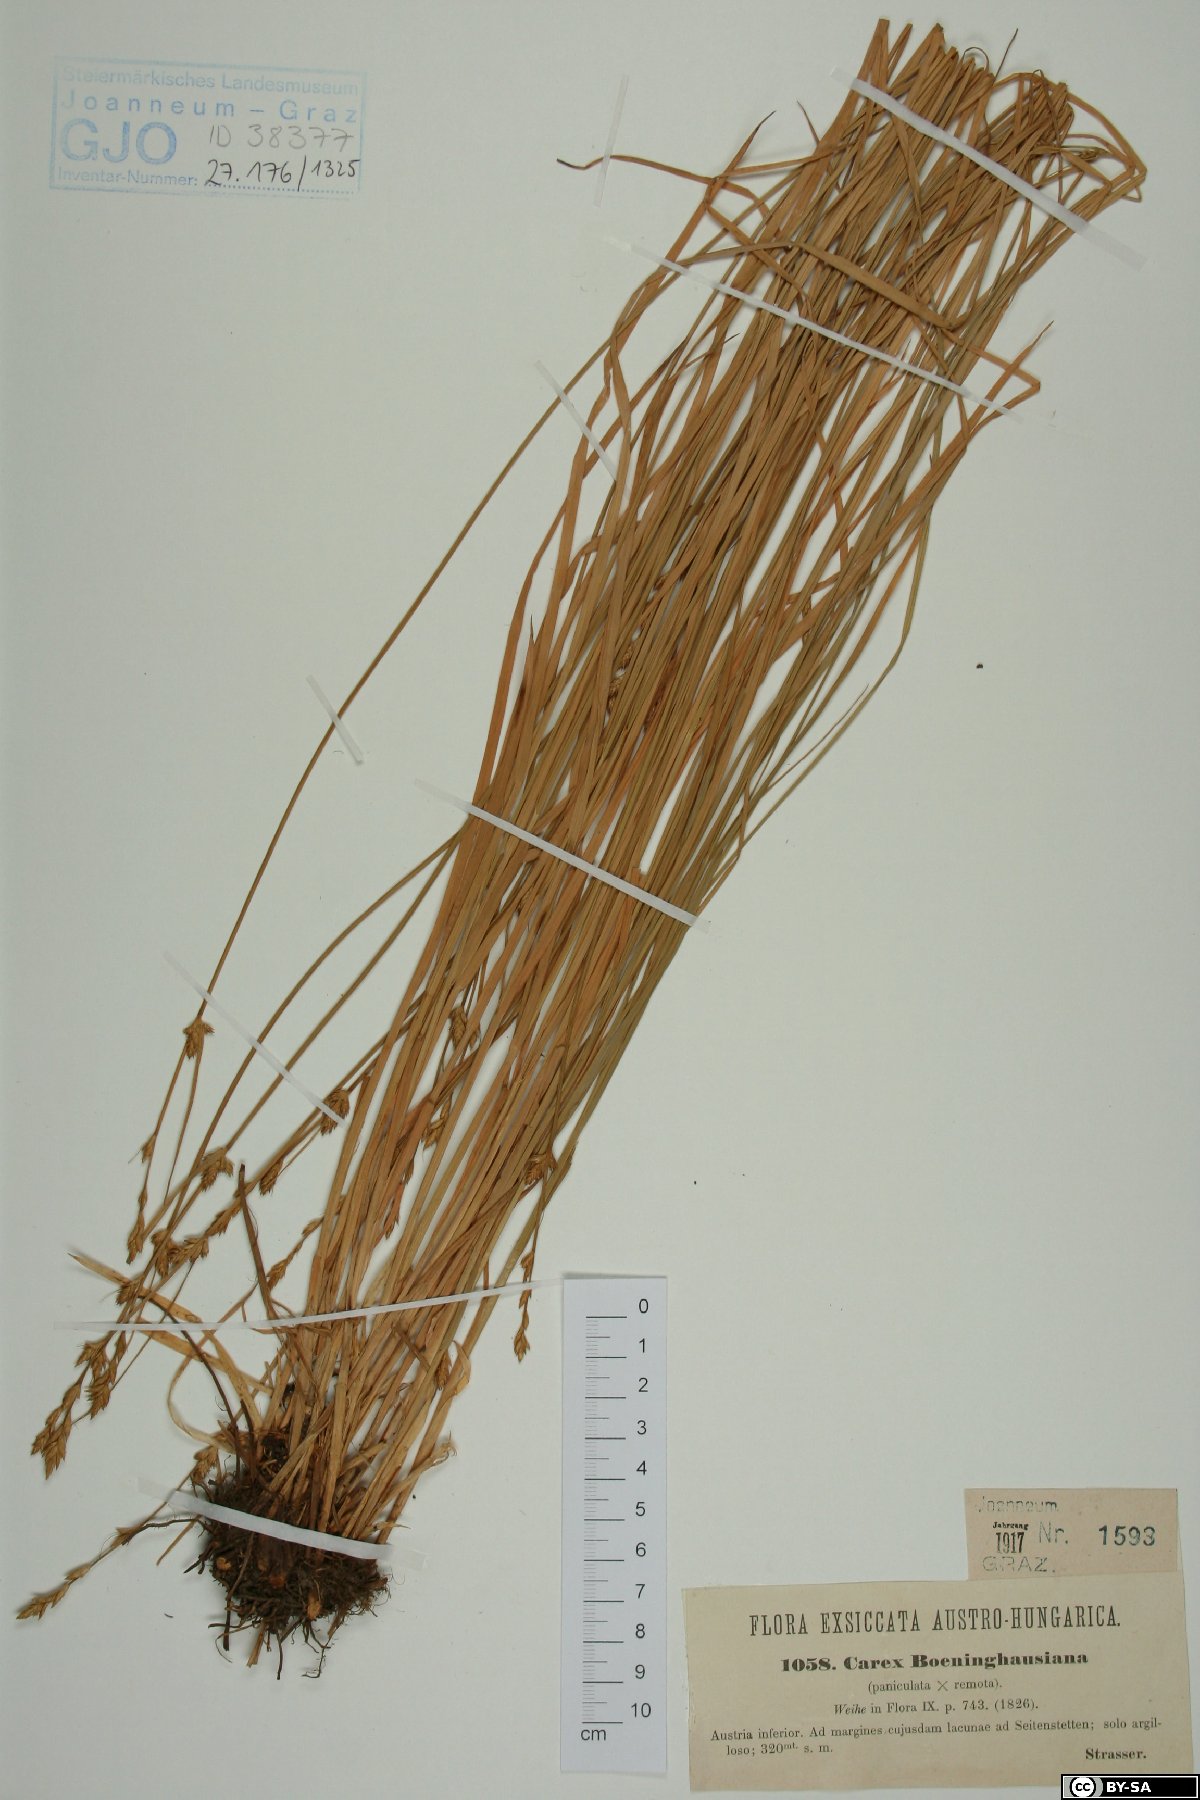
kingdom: Plantae
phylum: Tracheophyta
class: Liliopsida
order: Poales
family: Cyperaceae
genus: Carex
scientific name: Carex boenninghausiana
